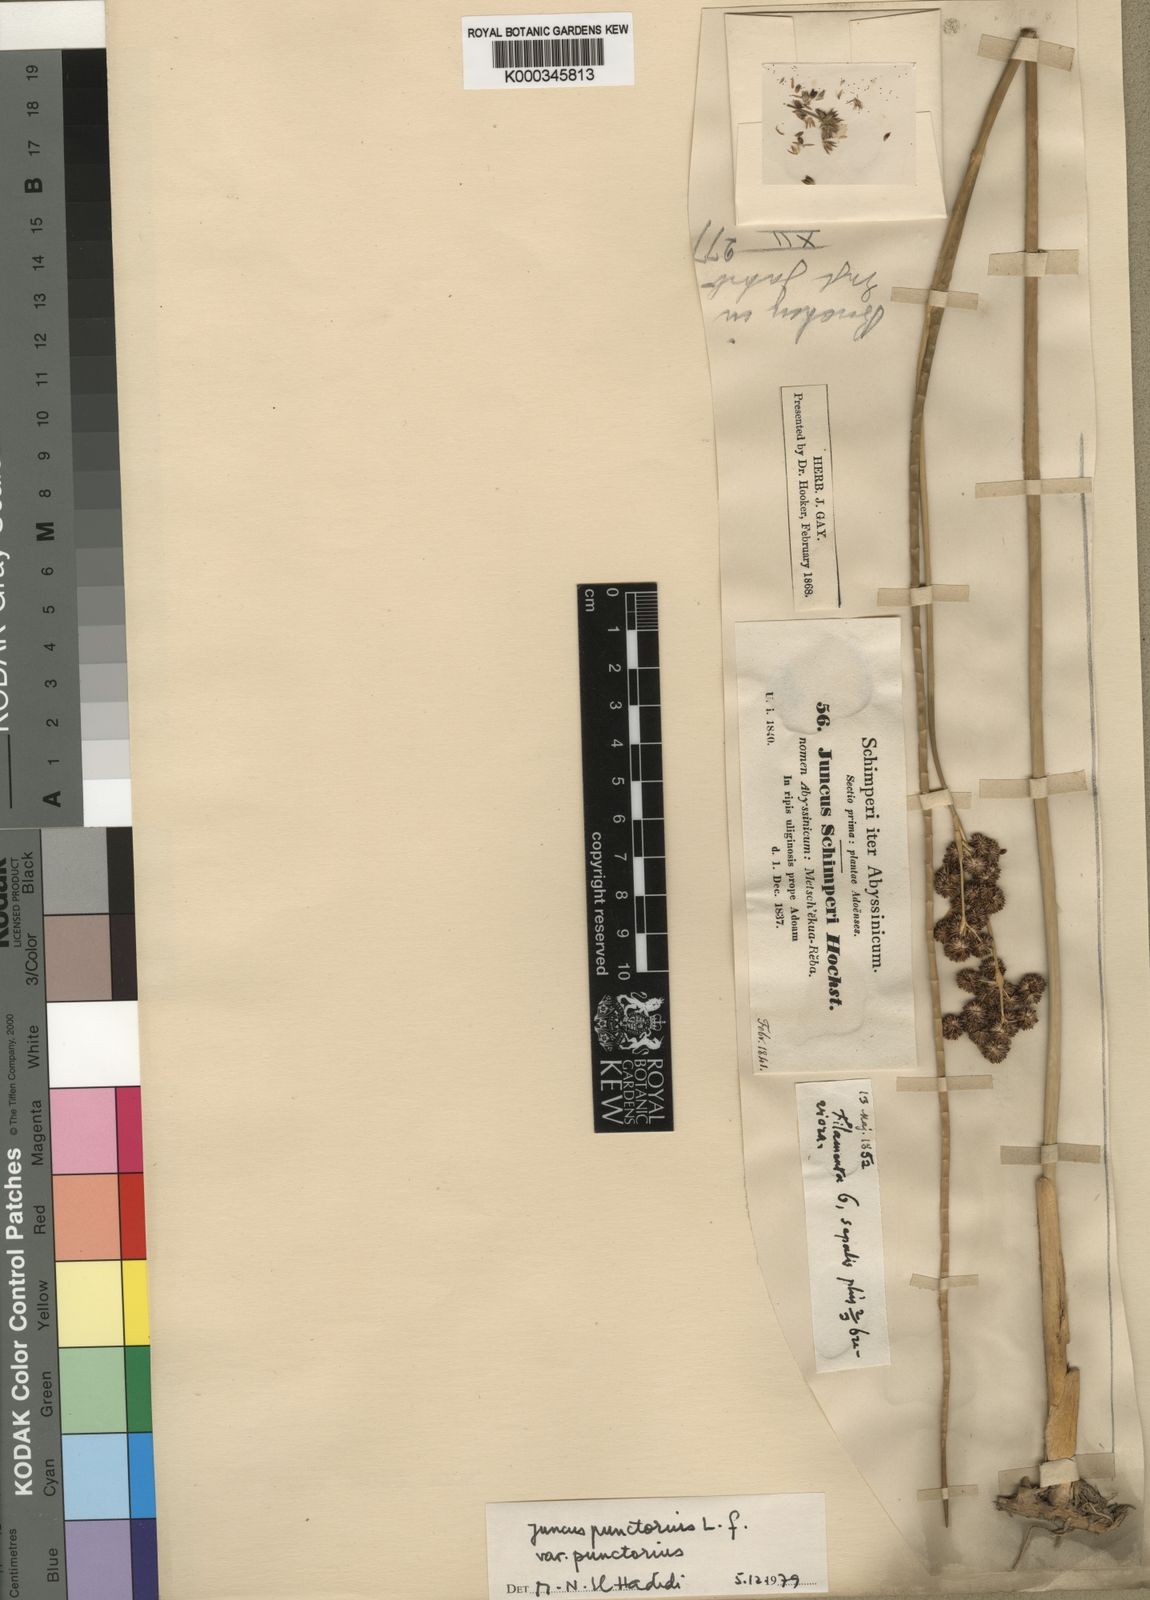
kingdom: Plantae
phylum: Tracheophyta
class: Liliopsida
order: Poales
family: Juncaceae
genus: Juncus
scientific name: Juncus punctorius
